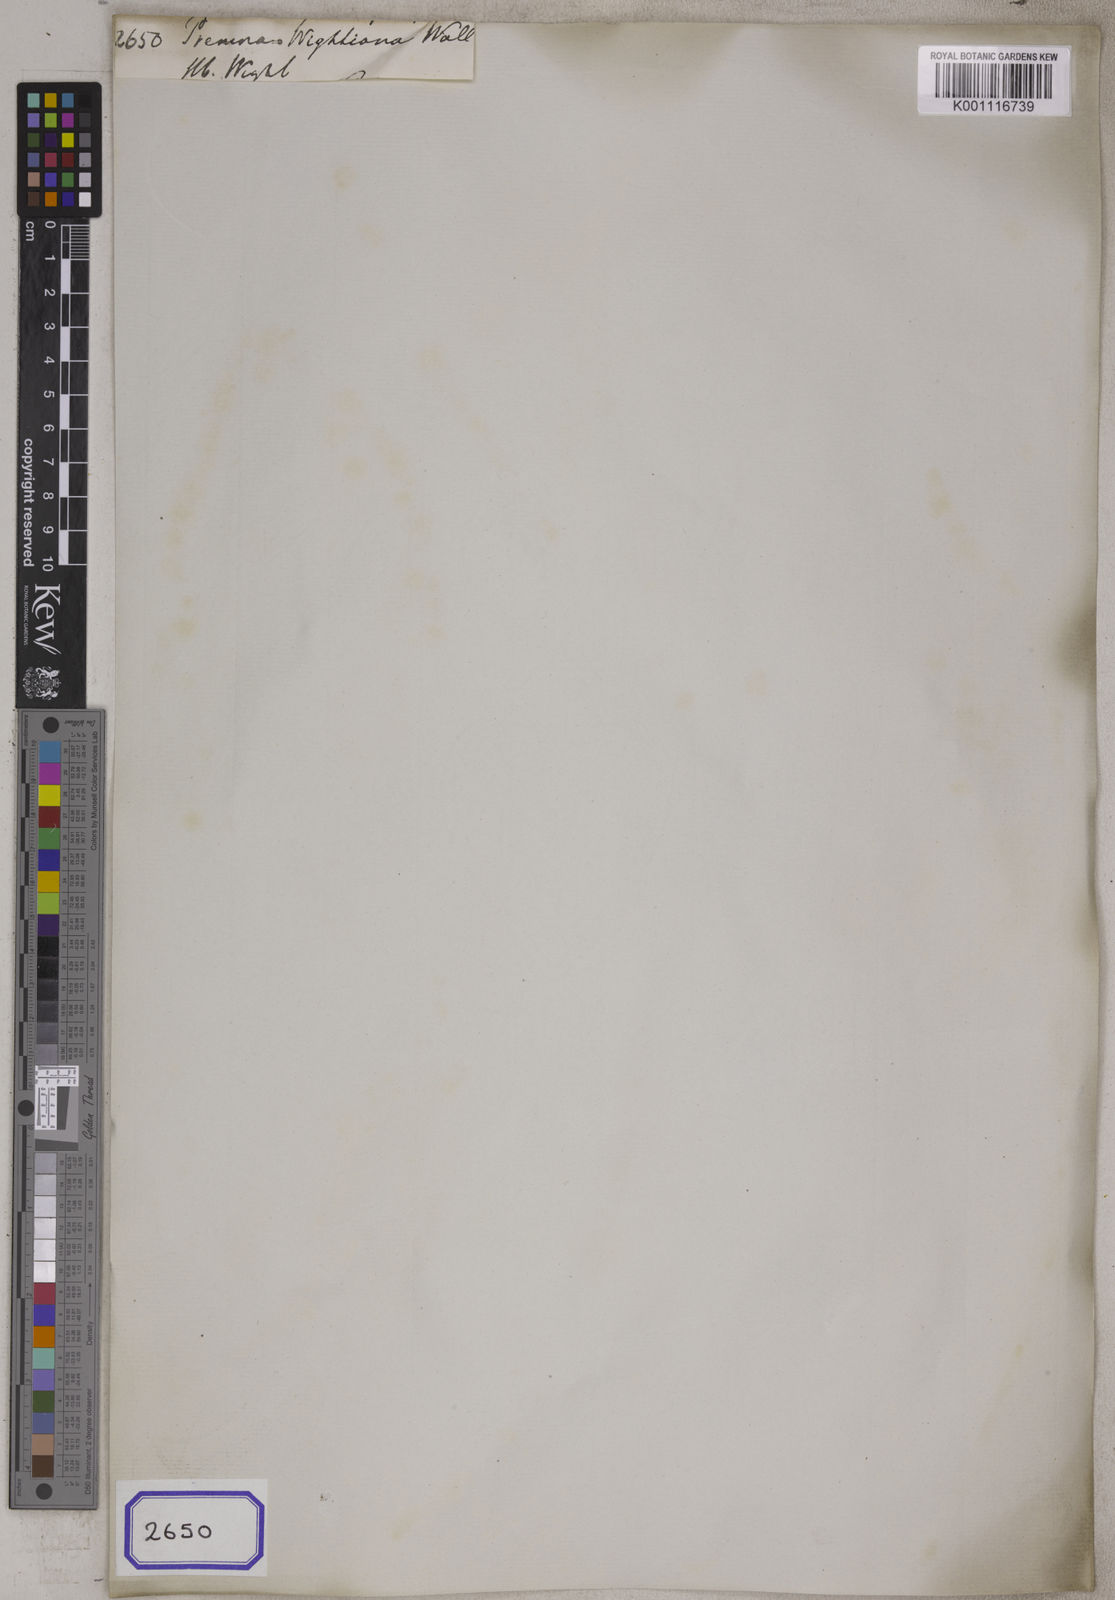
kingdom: Plantae
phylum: Tracheophyta
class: Magnoliopsida
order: Lamiales
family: Lamiaceae
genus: Premna
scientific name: Premna
